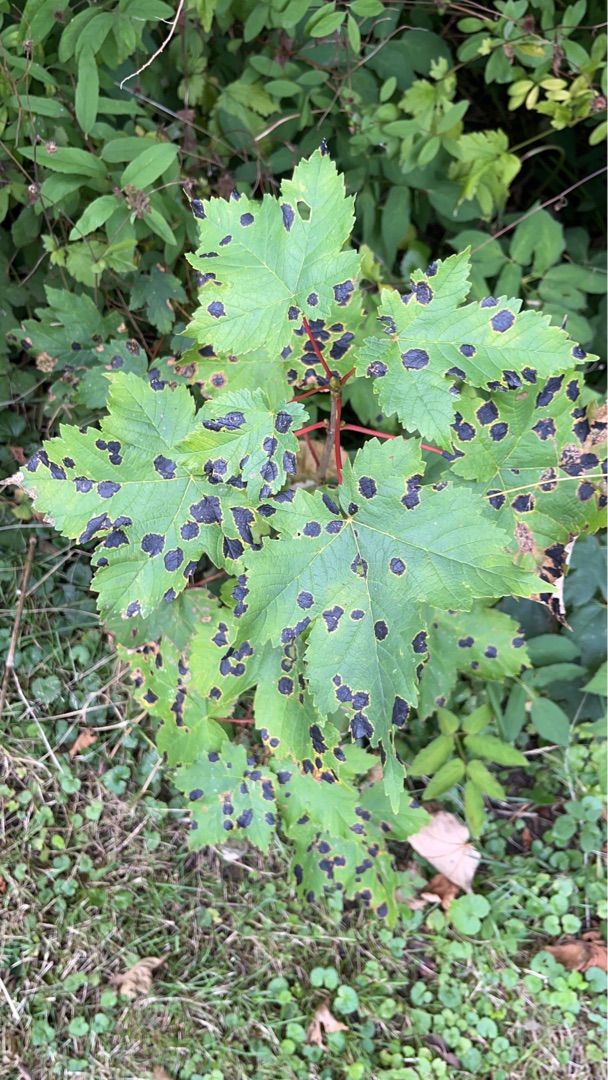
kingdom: Fungi
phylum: Ascomycota
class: Leotiomycetes
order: Rhytismatales
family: Rhytismataceae
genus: Rhytisma
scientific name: Rhytisma acerinum
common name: Ahorn-rynkeplet
